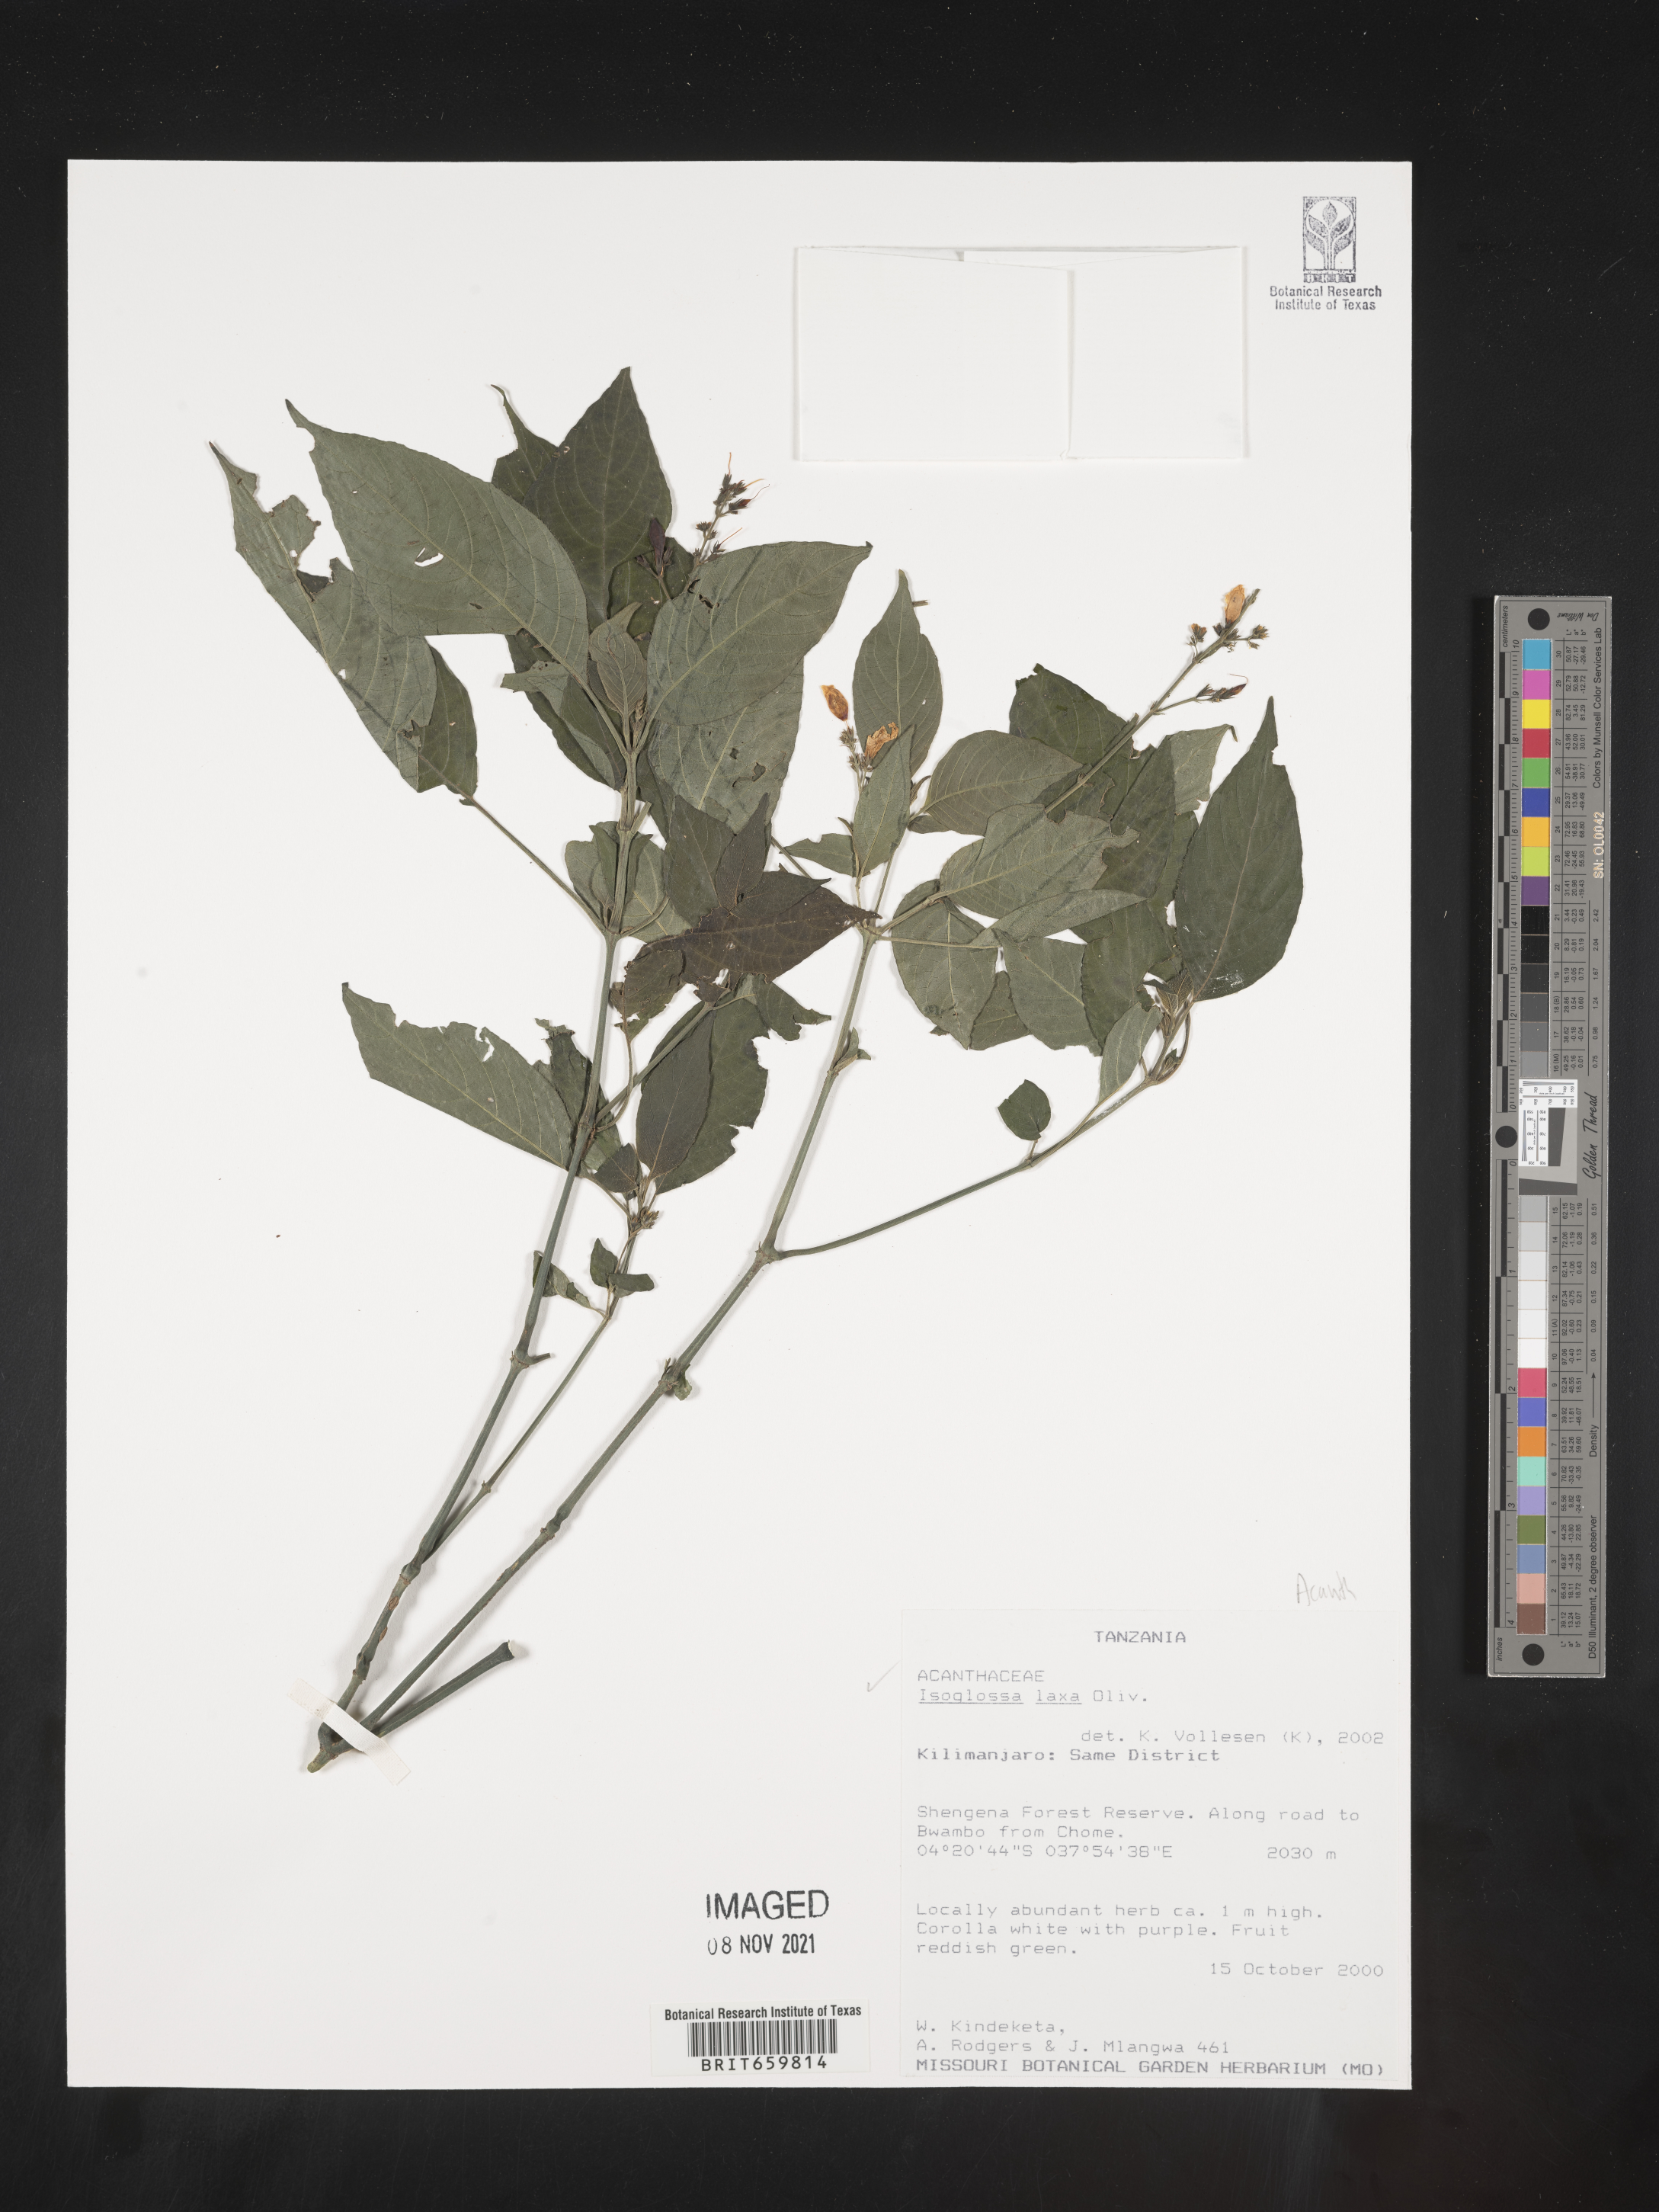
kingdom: Plantae
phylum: Tracheophyta
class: Magnoliopsida
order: Lamiales
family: Acanthaceae
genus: Isoglossa
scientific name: Isoglossa laxa
